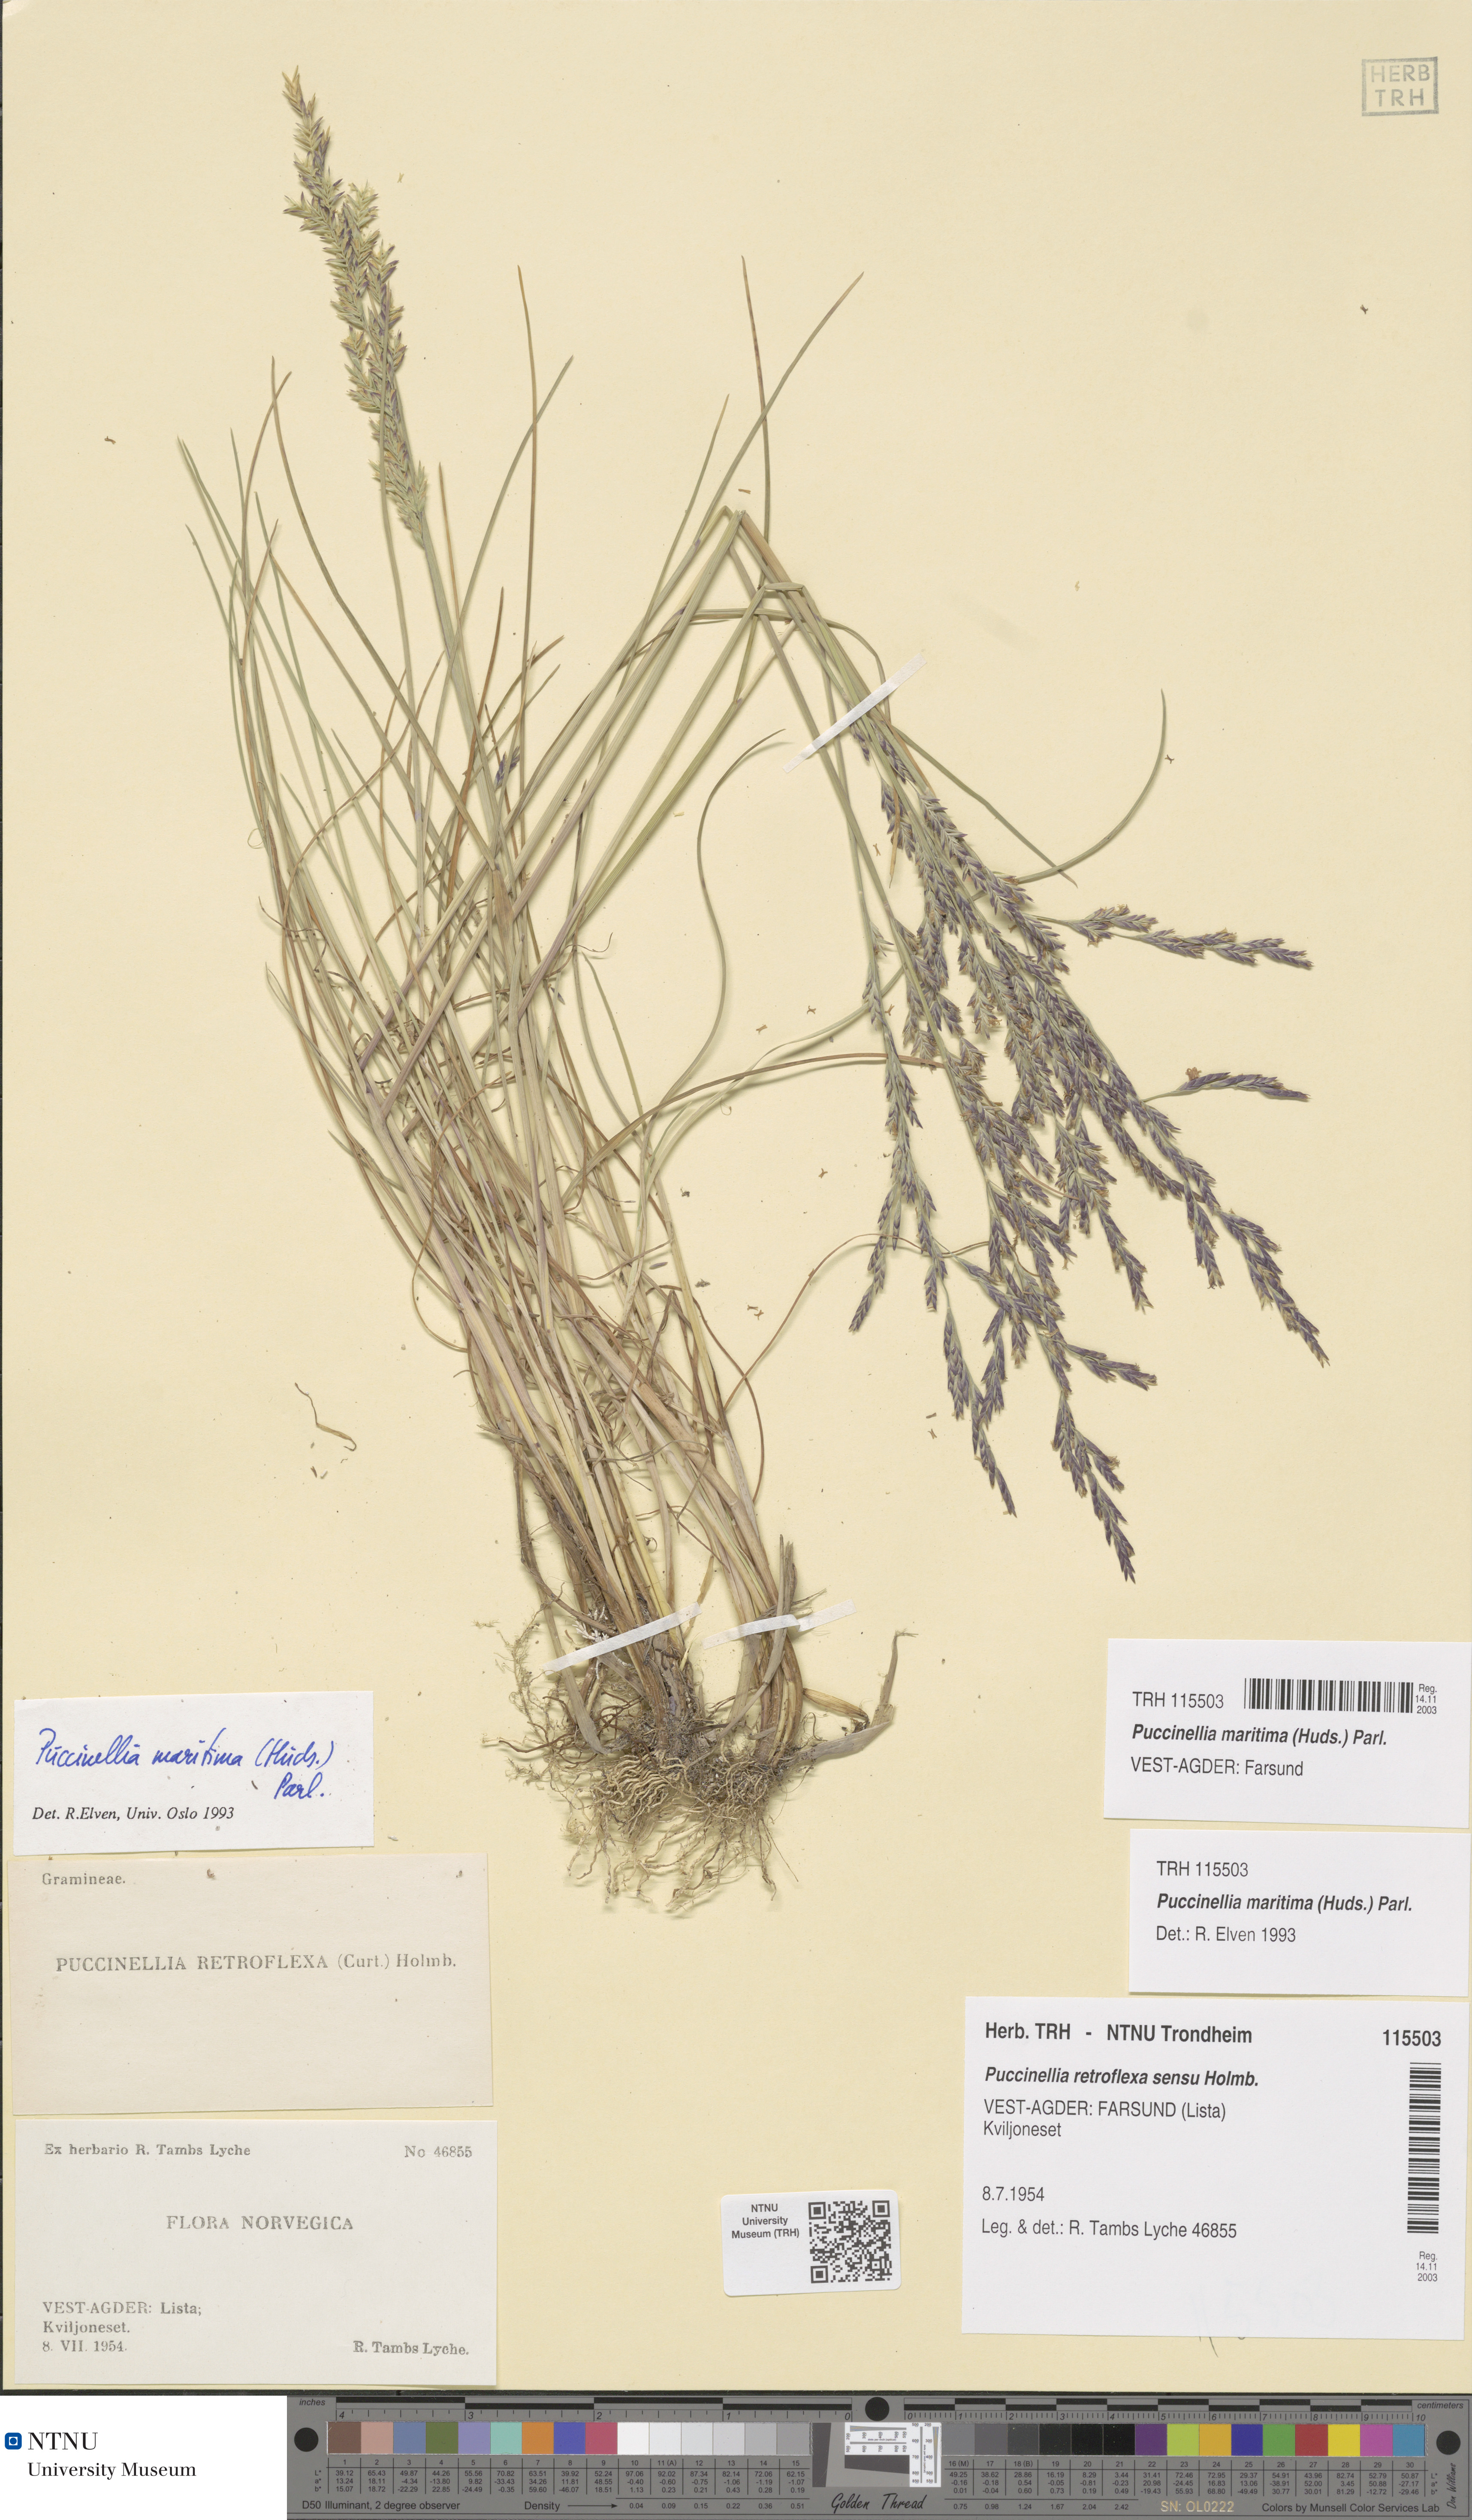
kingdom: Plantae
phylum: Tracheophyta
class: Liliopsida
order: Poales
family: Poaceae
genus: Puccinellia
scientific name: Puccinellia maritima
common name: Common saltmarsh grass
